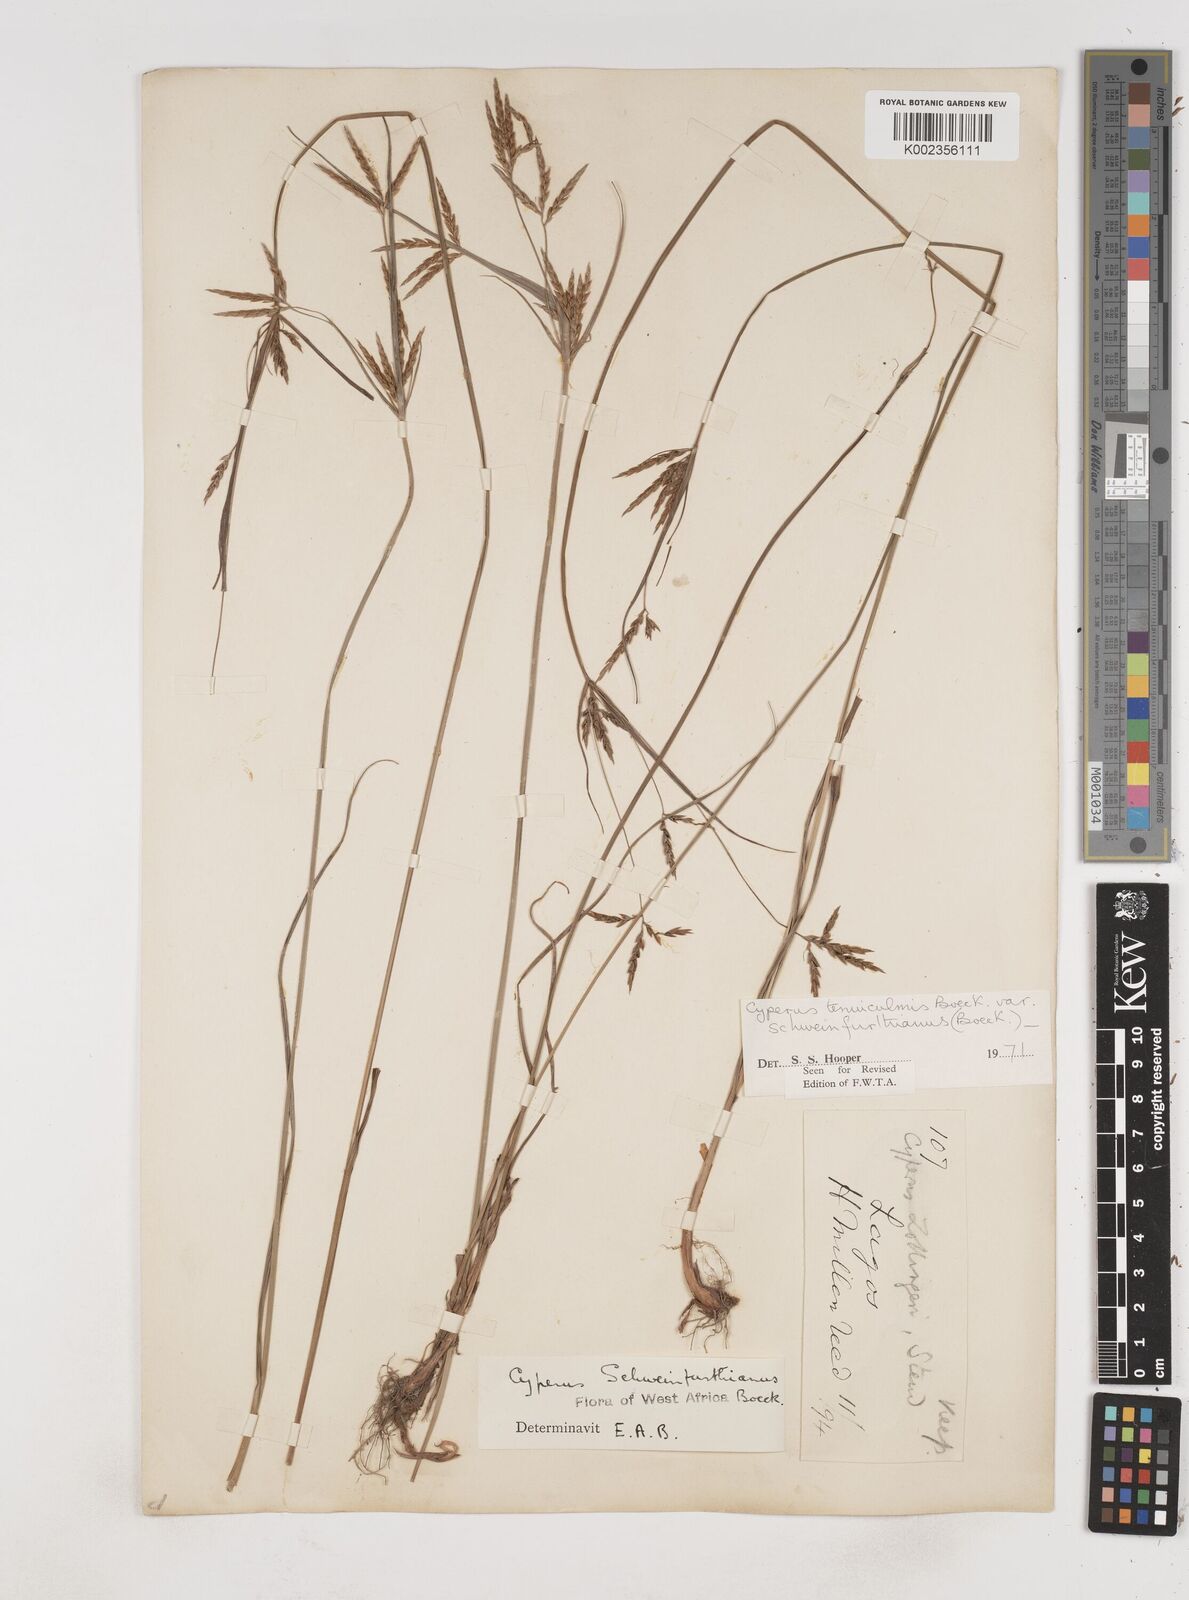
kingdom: Plantae
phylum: Tracheophyta
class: Liliopsida
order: Poales
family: Cyperaceae
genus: Cyperus
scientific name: Cyperus tenuiculmis
